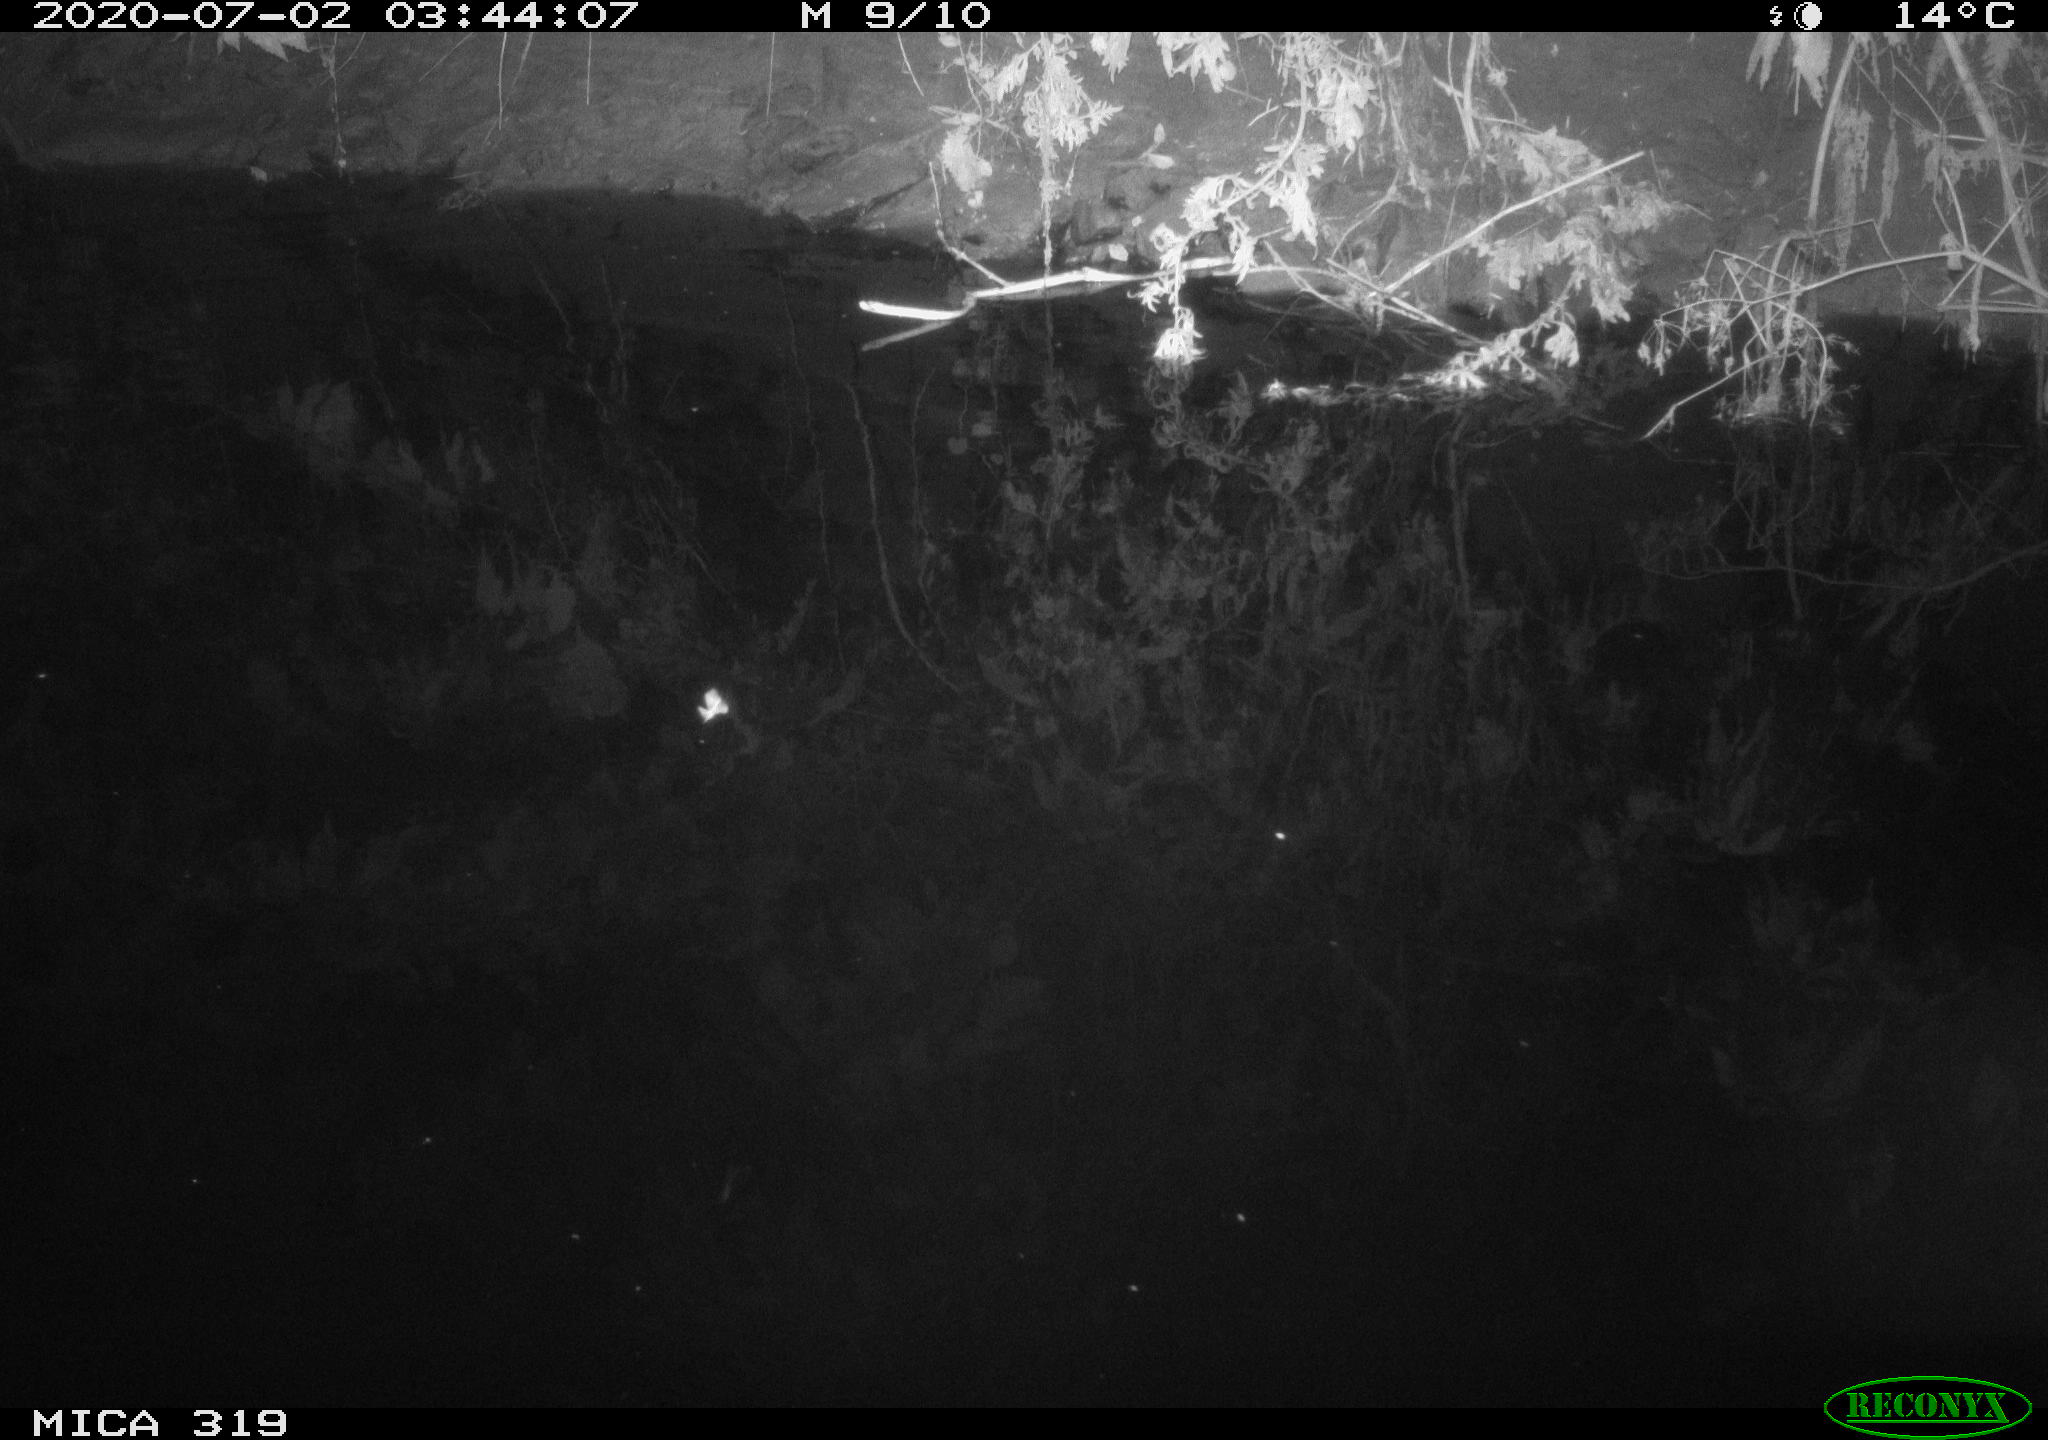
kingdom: Animalia
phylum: Chordata
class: Aves
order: Anseriformes
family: Anatidae
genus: Anas
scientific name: Anas platyrhynchos
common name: Mallard
